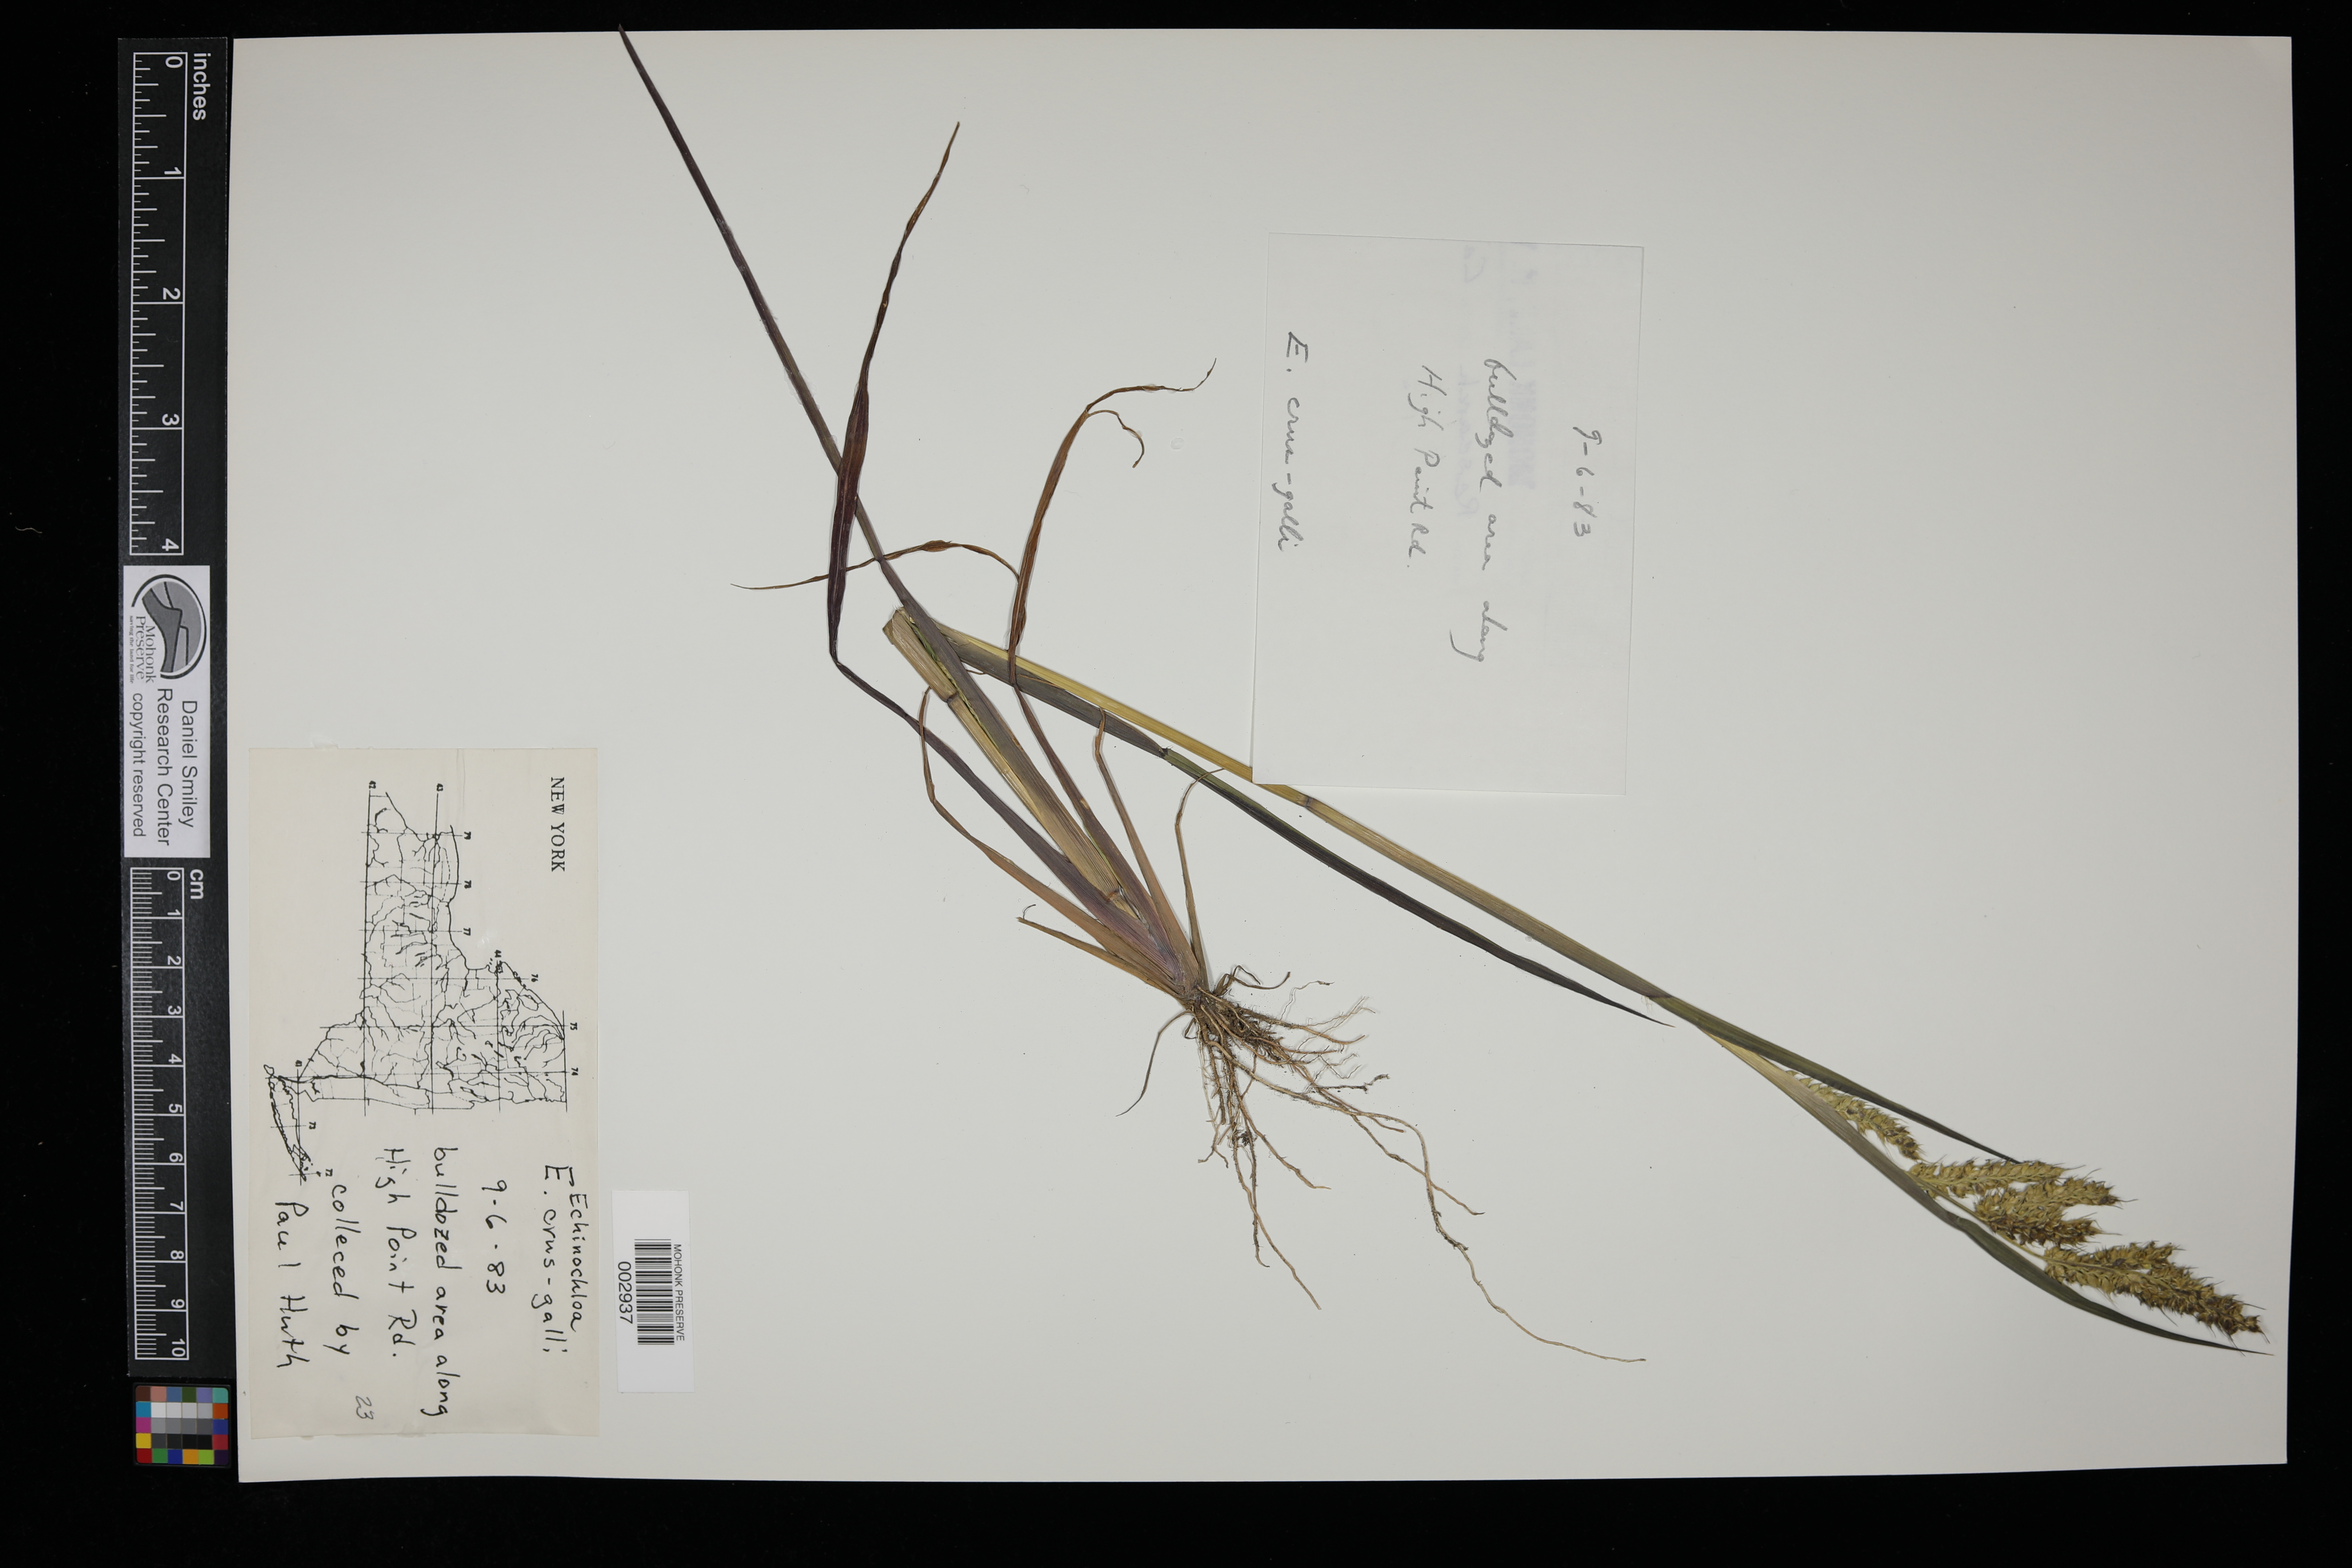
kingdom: Plantae
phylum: Tracheophyta
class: Liliopsida
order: Poales
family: Poaceae
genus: Echinochloa
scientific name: Echinochloa crus-galli
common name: Cockspur
